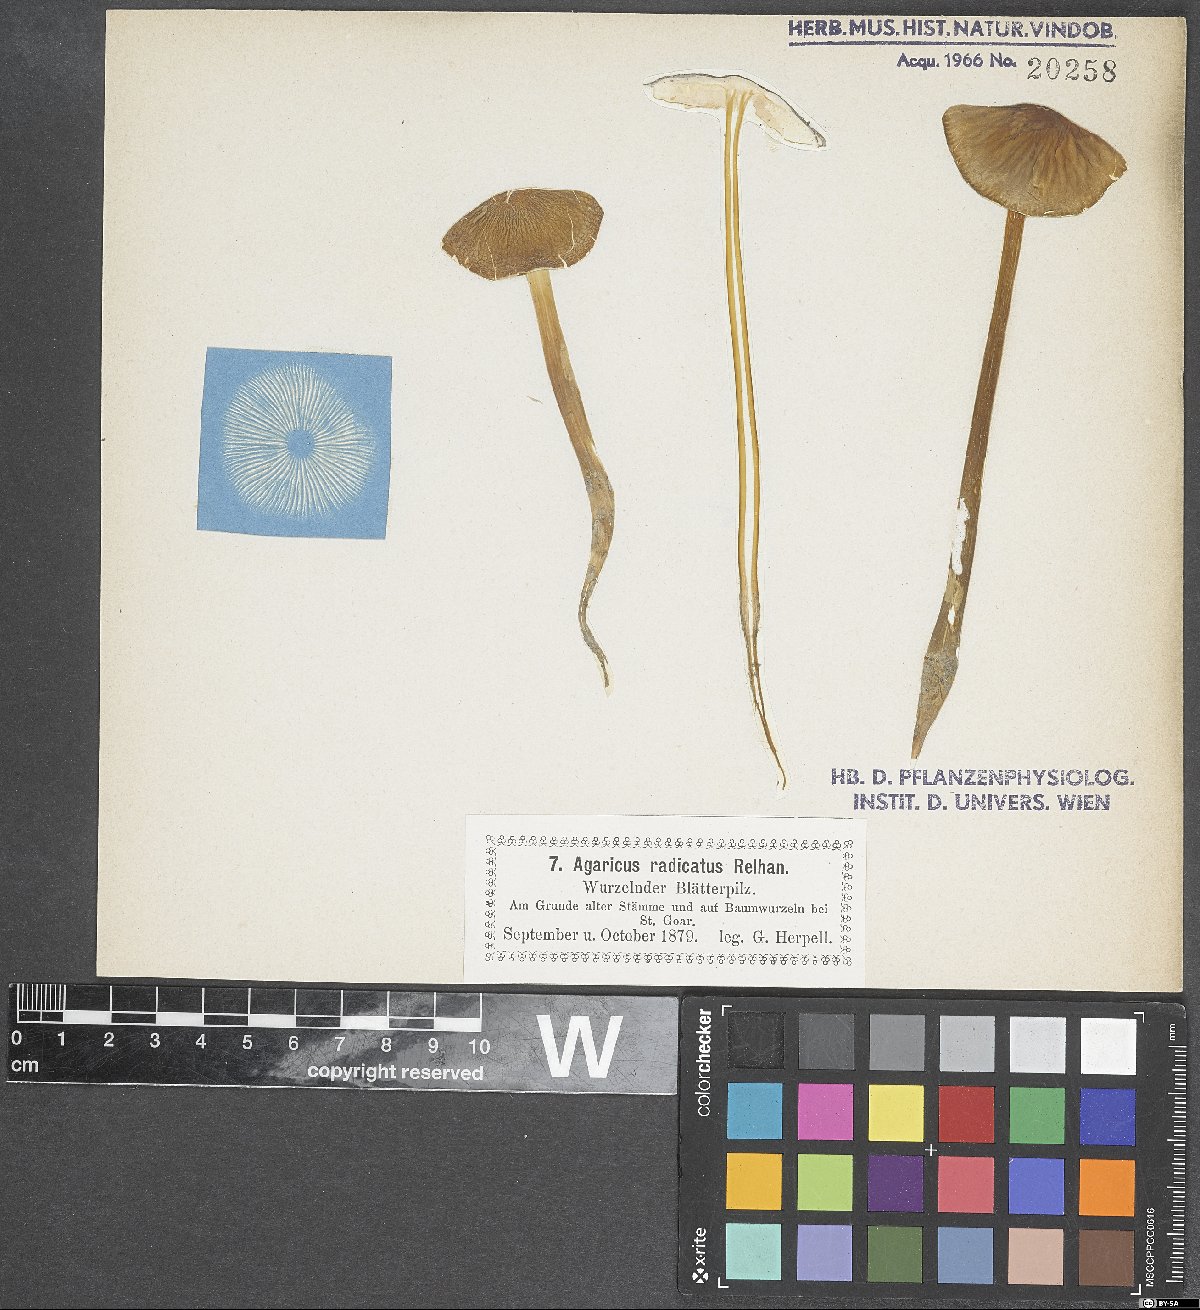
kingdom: Fungi
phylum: Basidiomycota
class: Agaricomycetes
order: Agaricales
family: Agaricaceae
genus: Agaricus
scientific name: Agaricus bresadolanus
